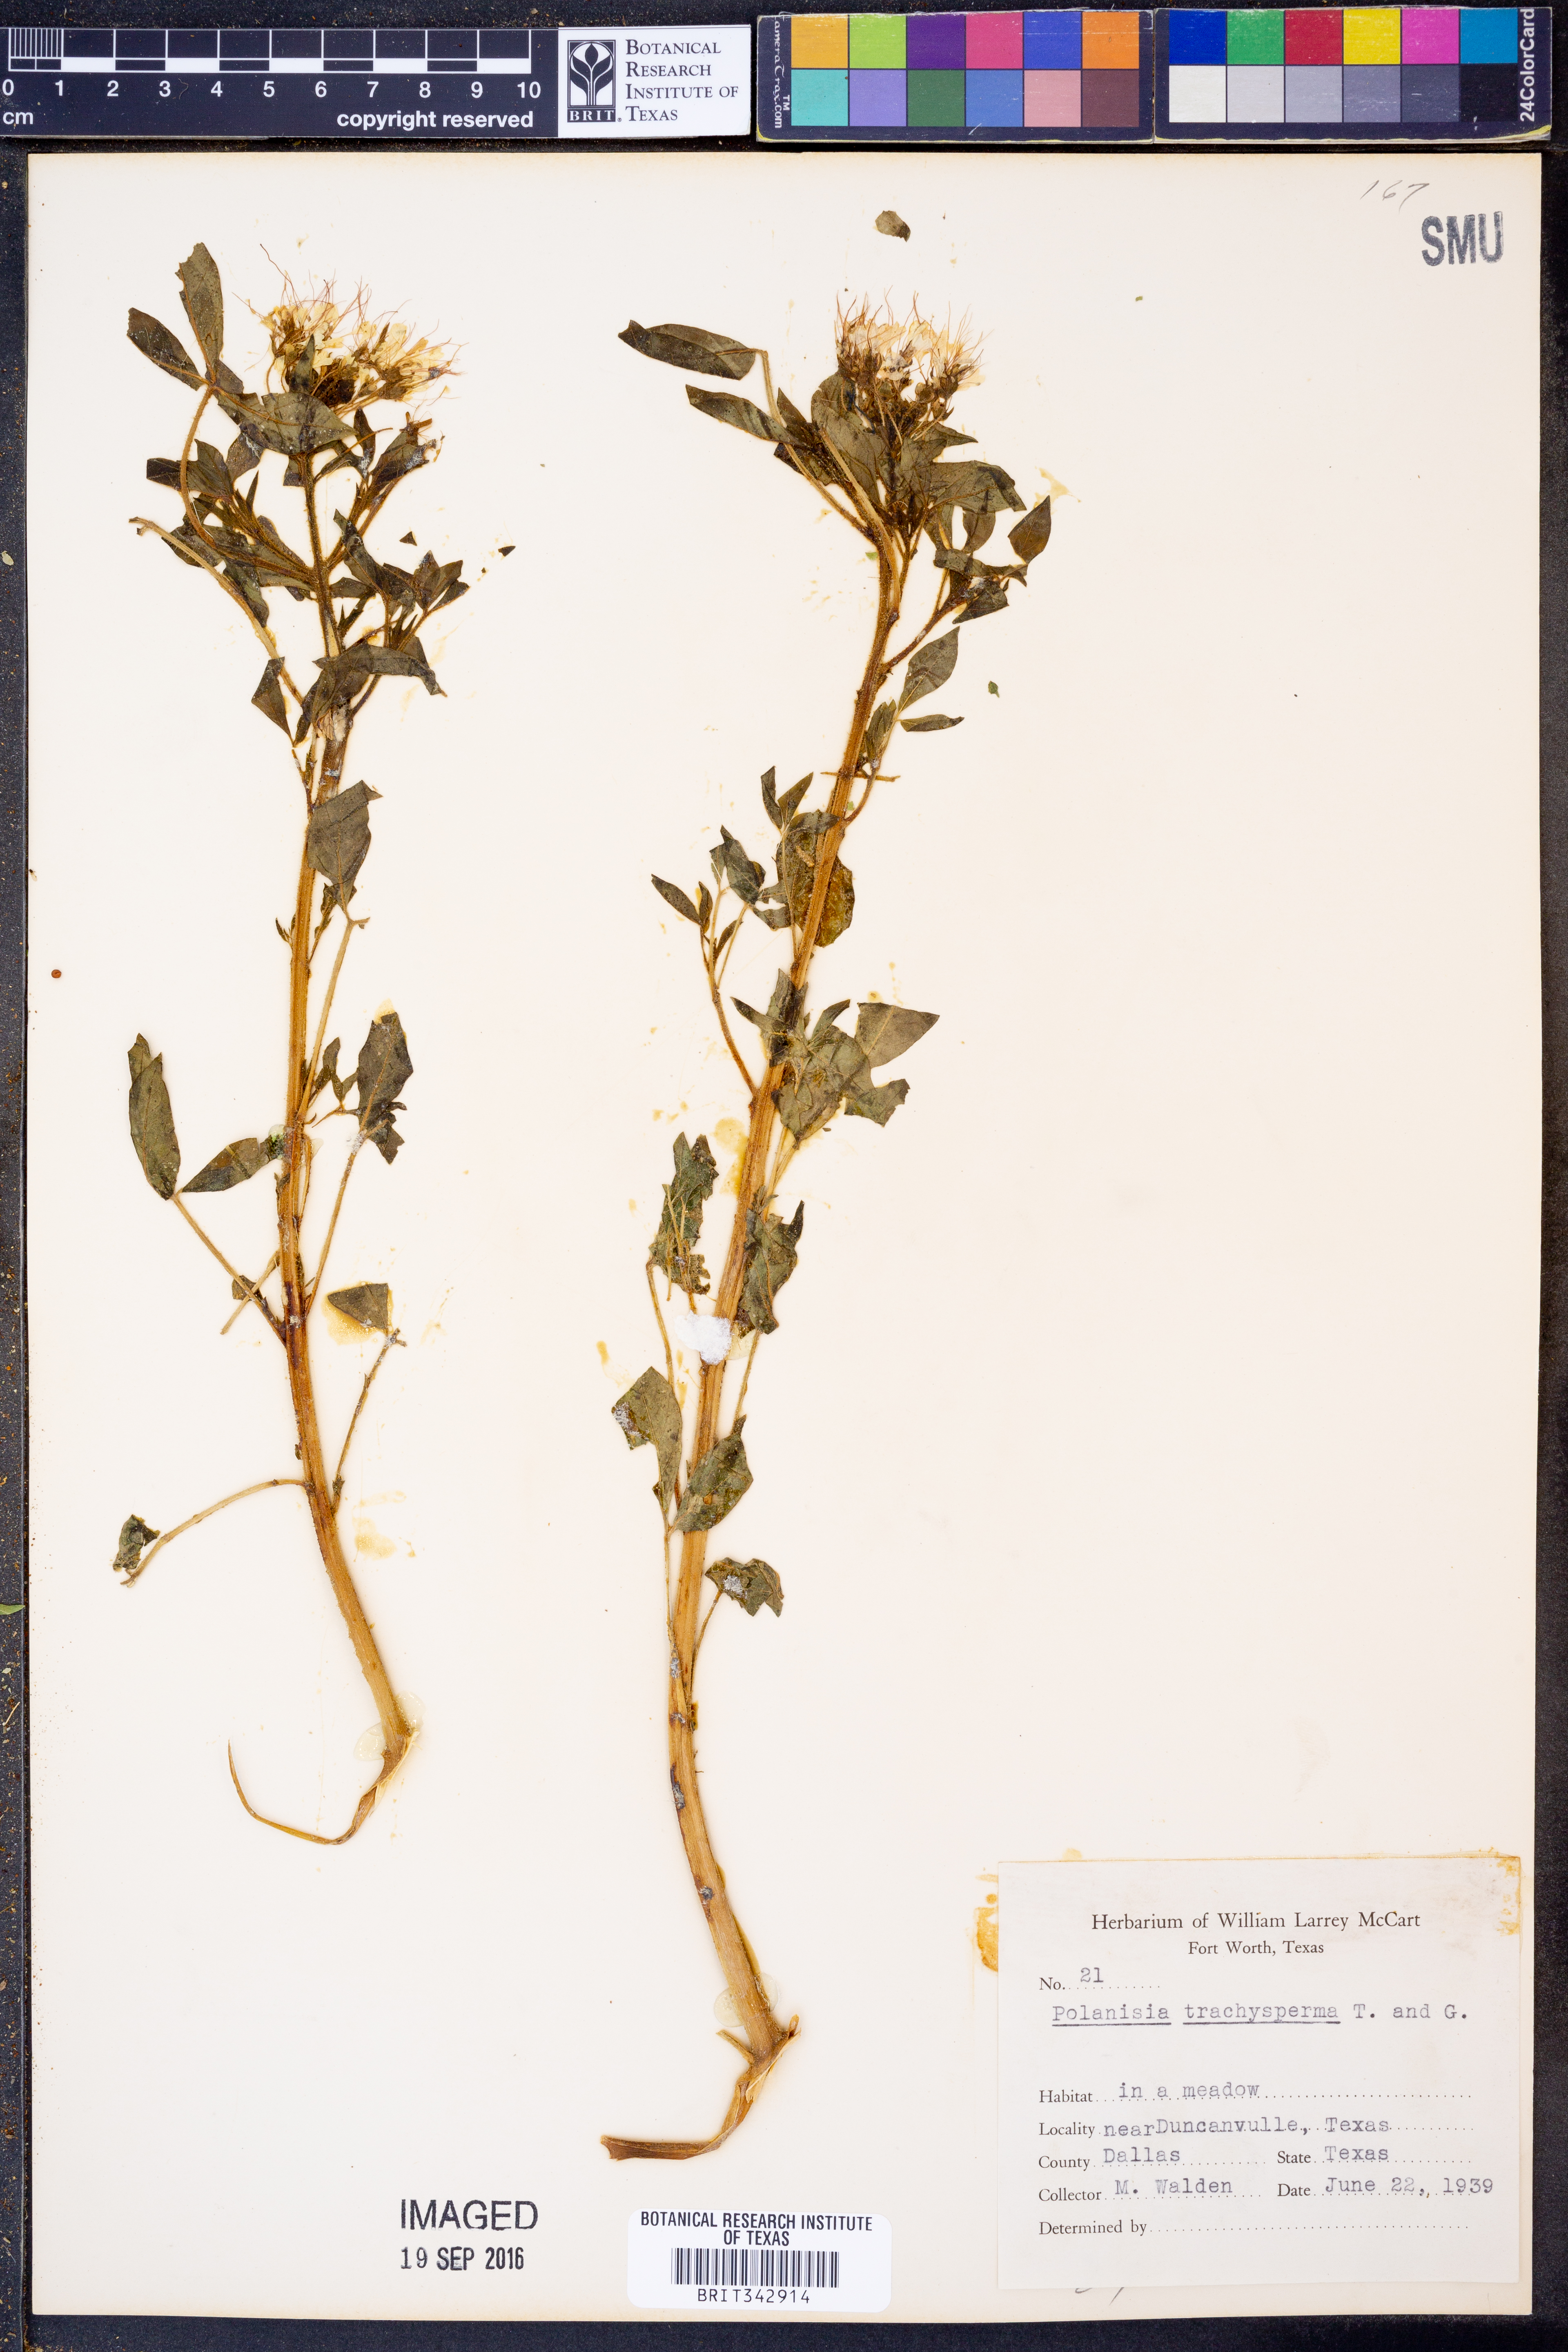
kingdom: Plantae
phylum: Tracheophyta
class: Magnoliopsida
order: Brassicales
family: Cleomaceae
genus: Polanisia
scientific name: Polanisia trachysperma
